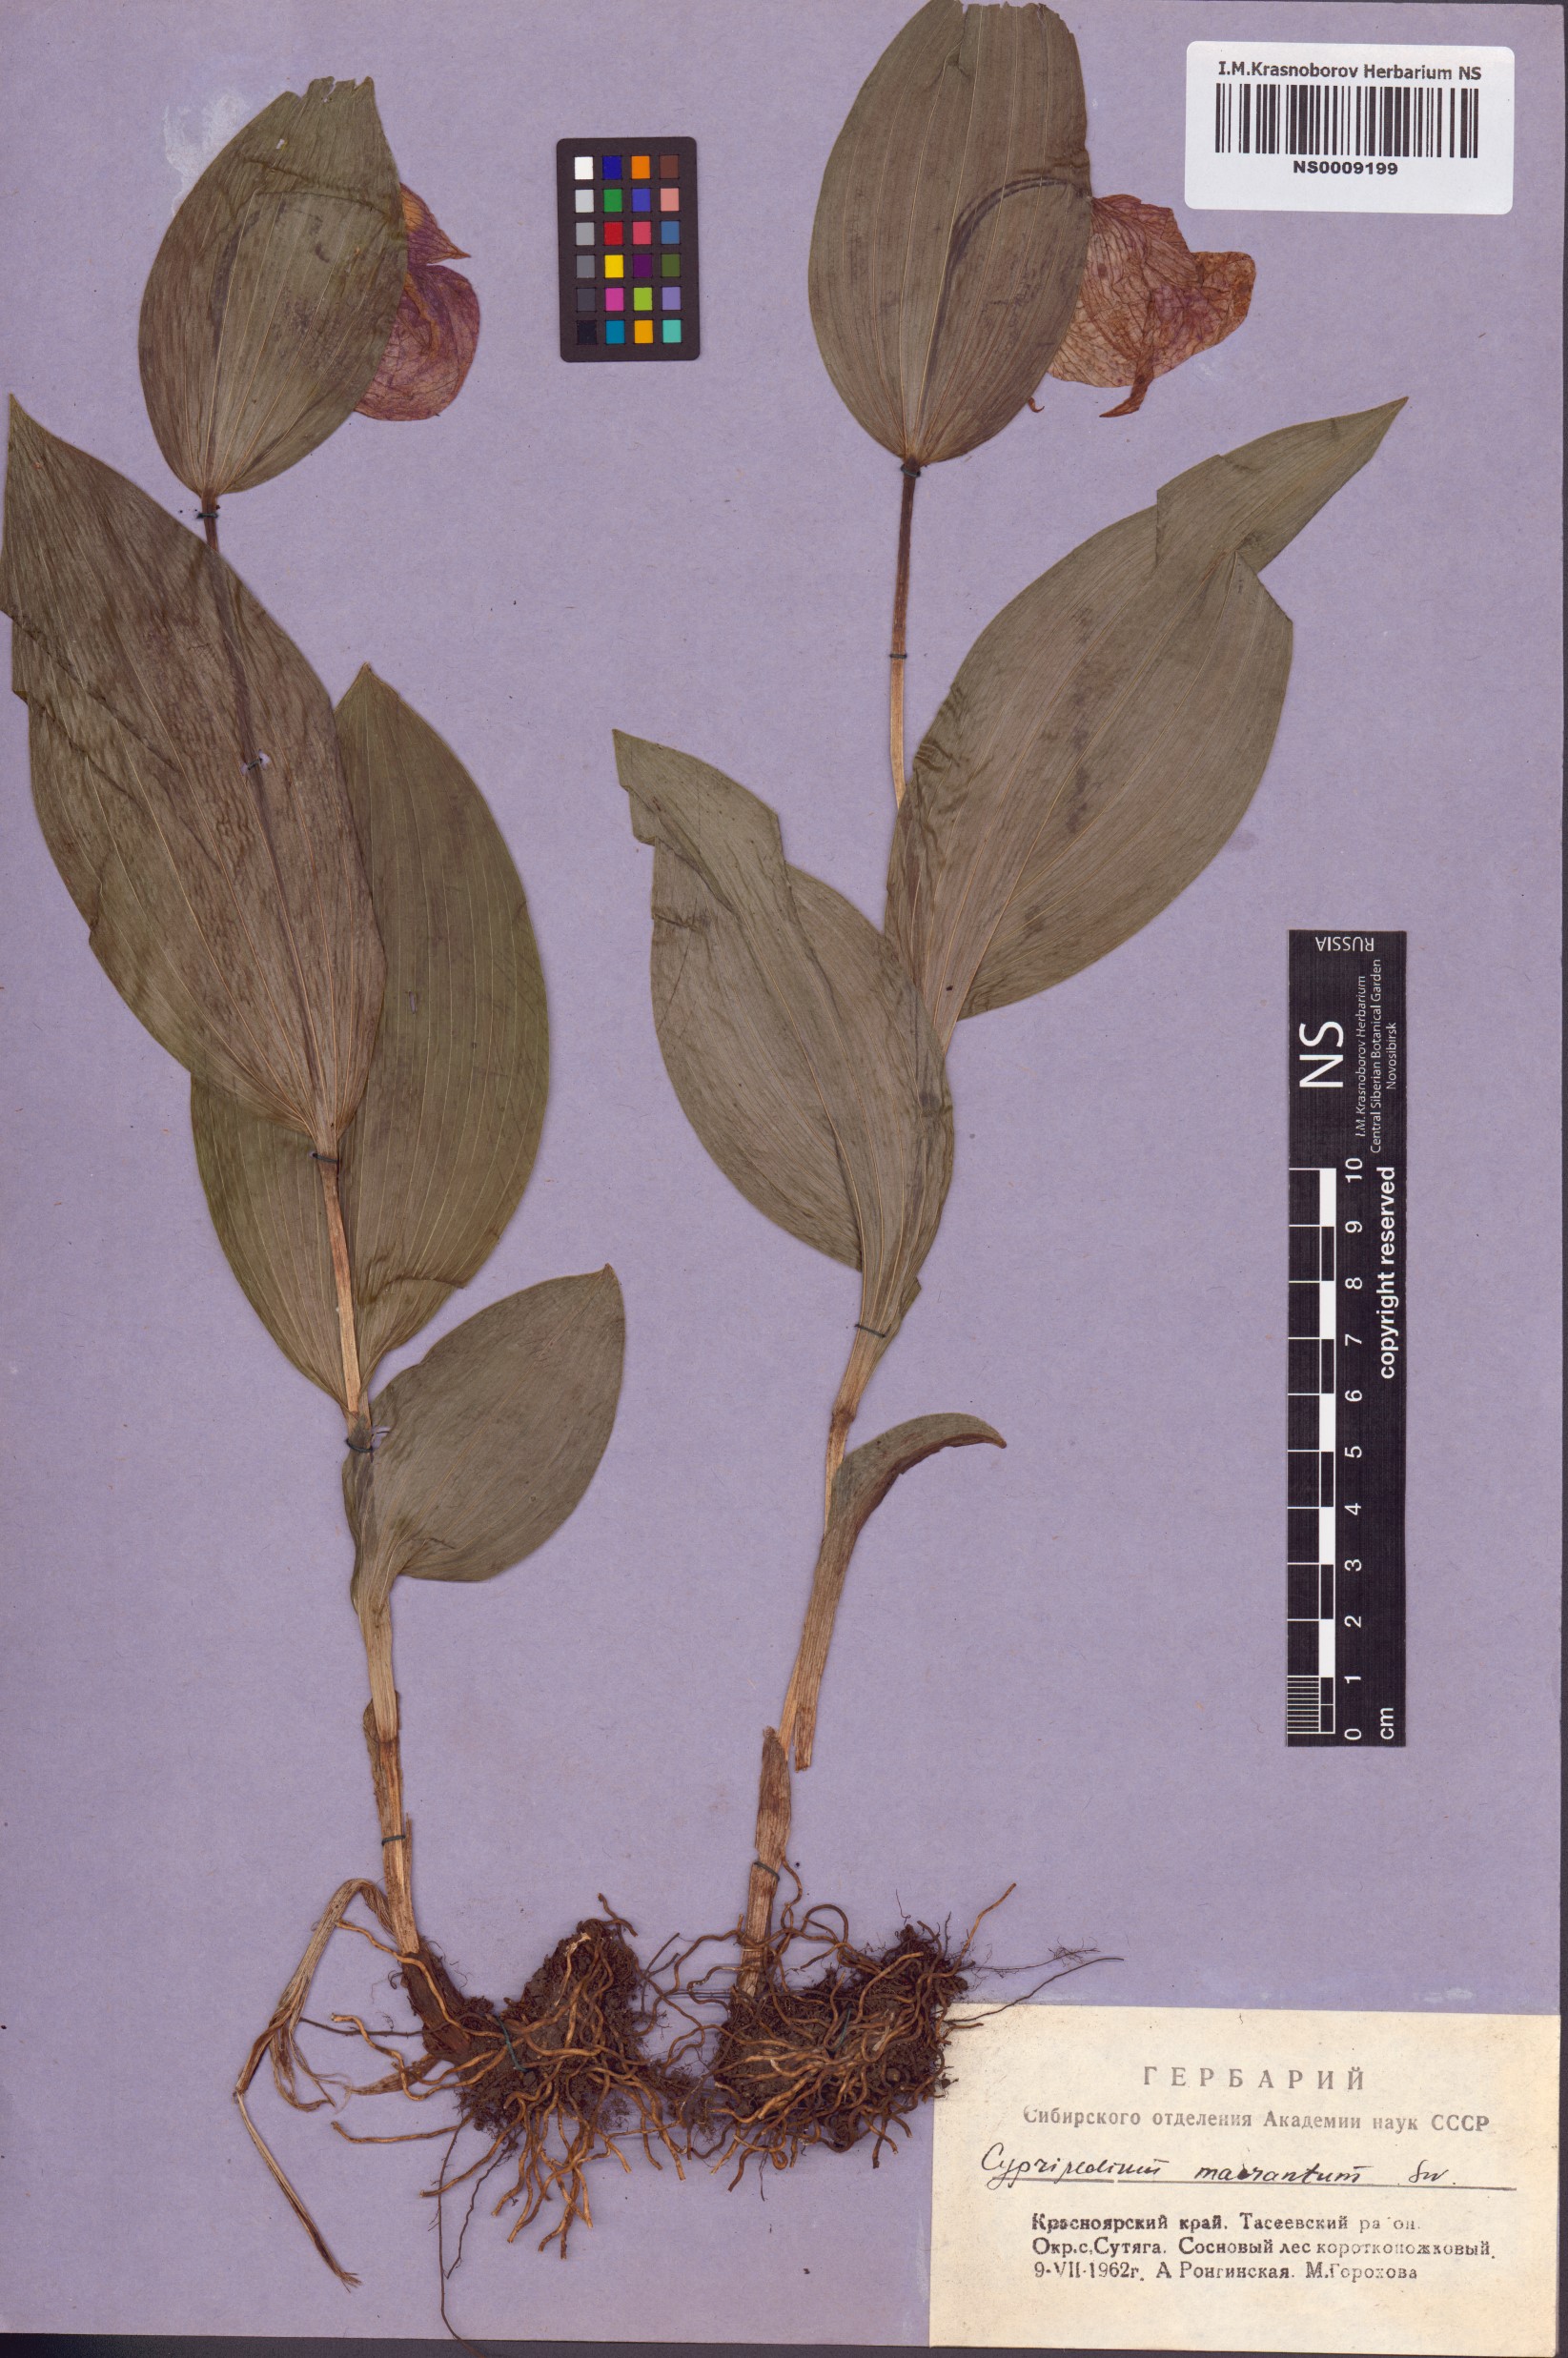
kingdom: Plantae
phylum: Tracheophyta
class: Liliopsida
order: Asparagales
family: Orchidaceae
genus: Cypripedium
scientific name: Cypripedium macranthos
